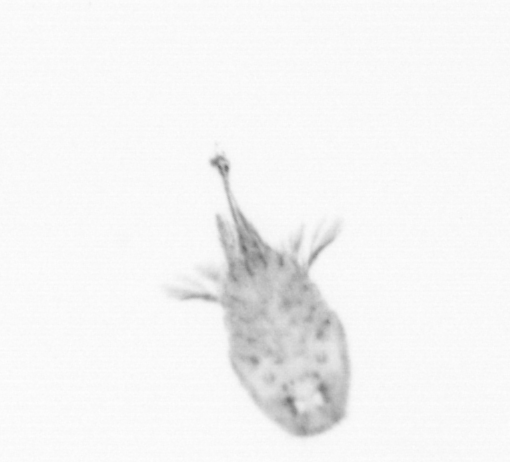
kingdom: Animalia
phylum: Arthropoda
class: Copepoda
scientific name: Copepoda
